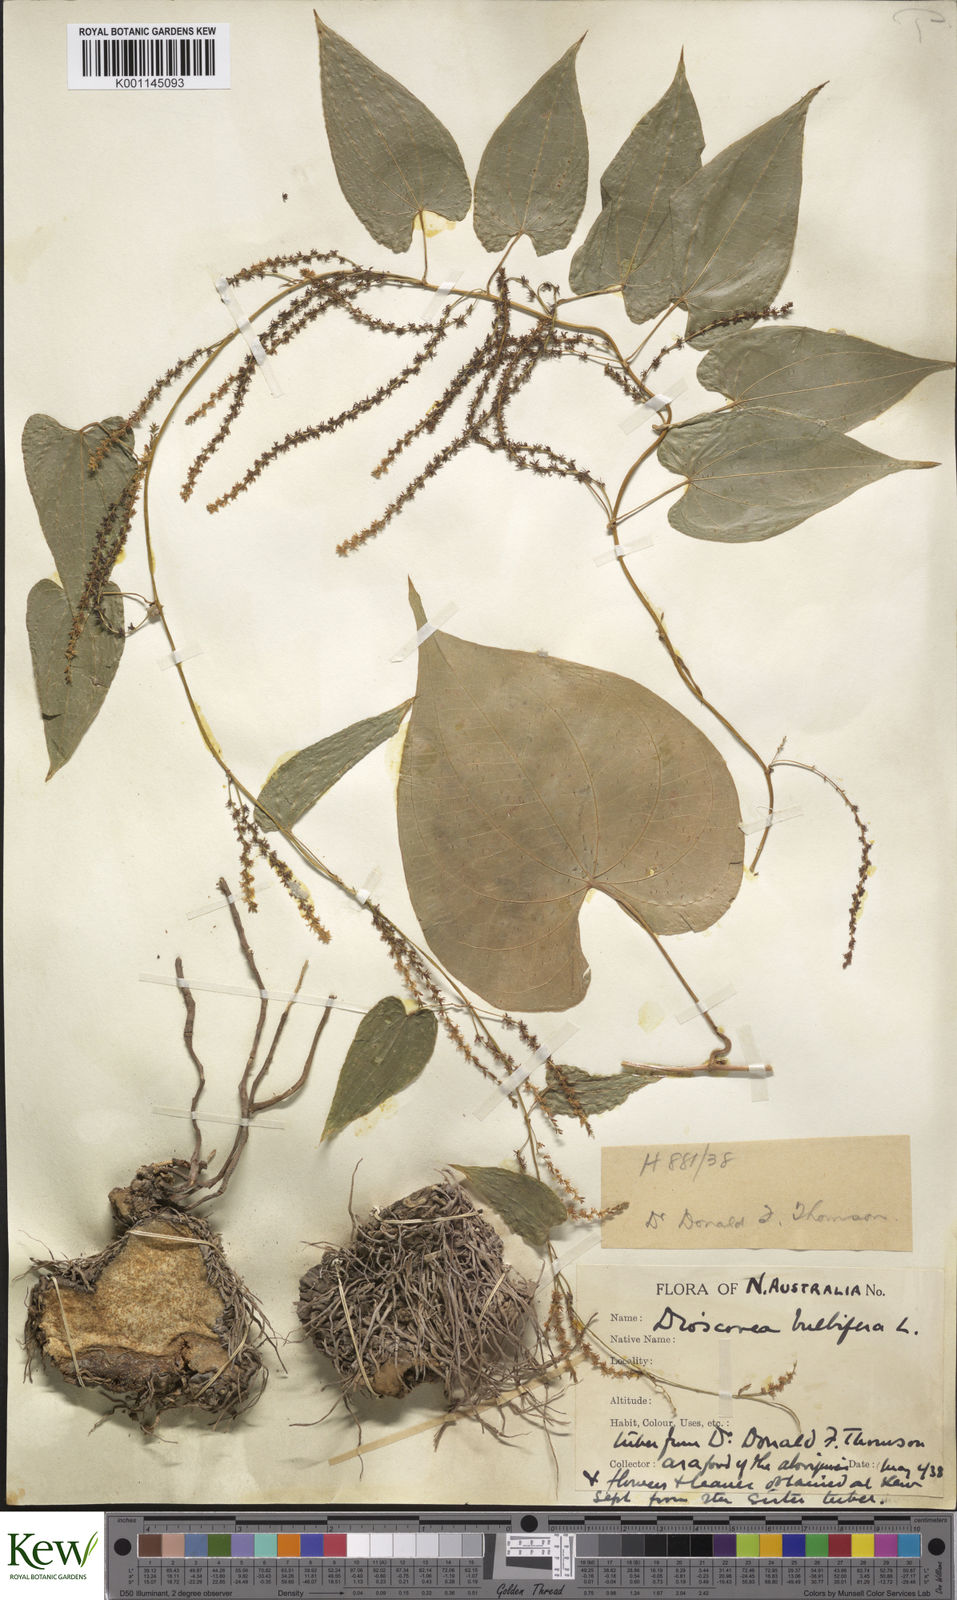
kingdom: Plantae
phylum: Tracheophyta
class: Liliopsida
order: Dioscoreales
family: Dioscoreaceae
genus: Dioscorea
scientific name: Dioscorea bulbifera
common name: Air yam
